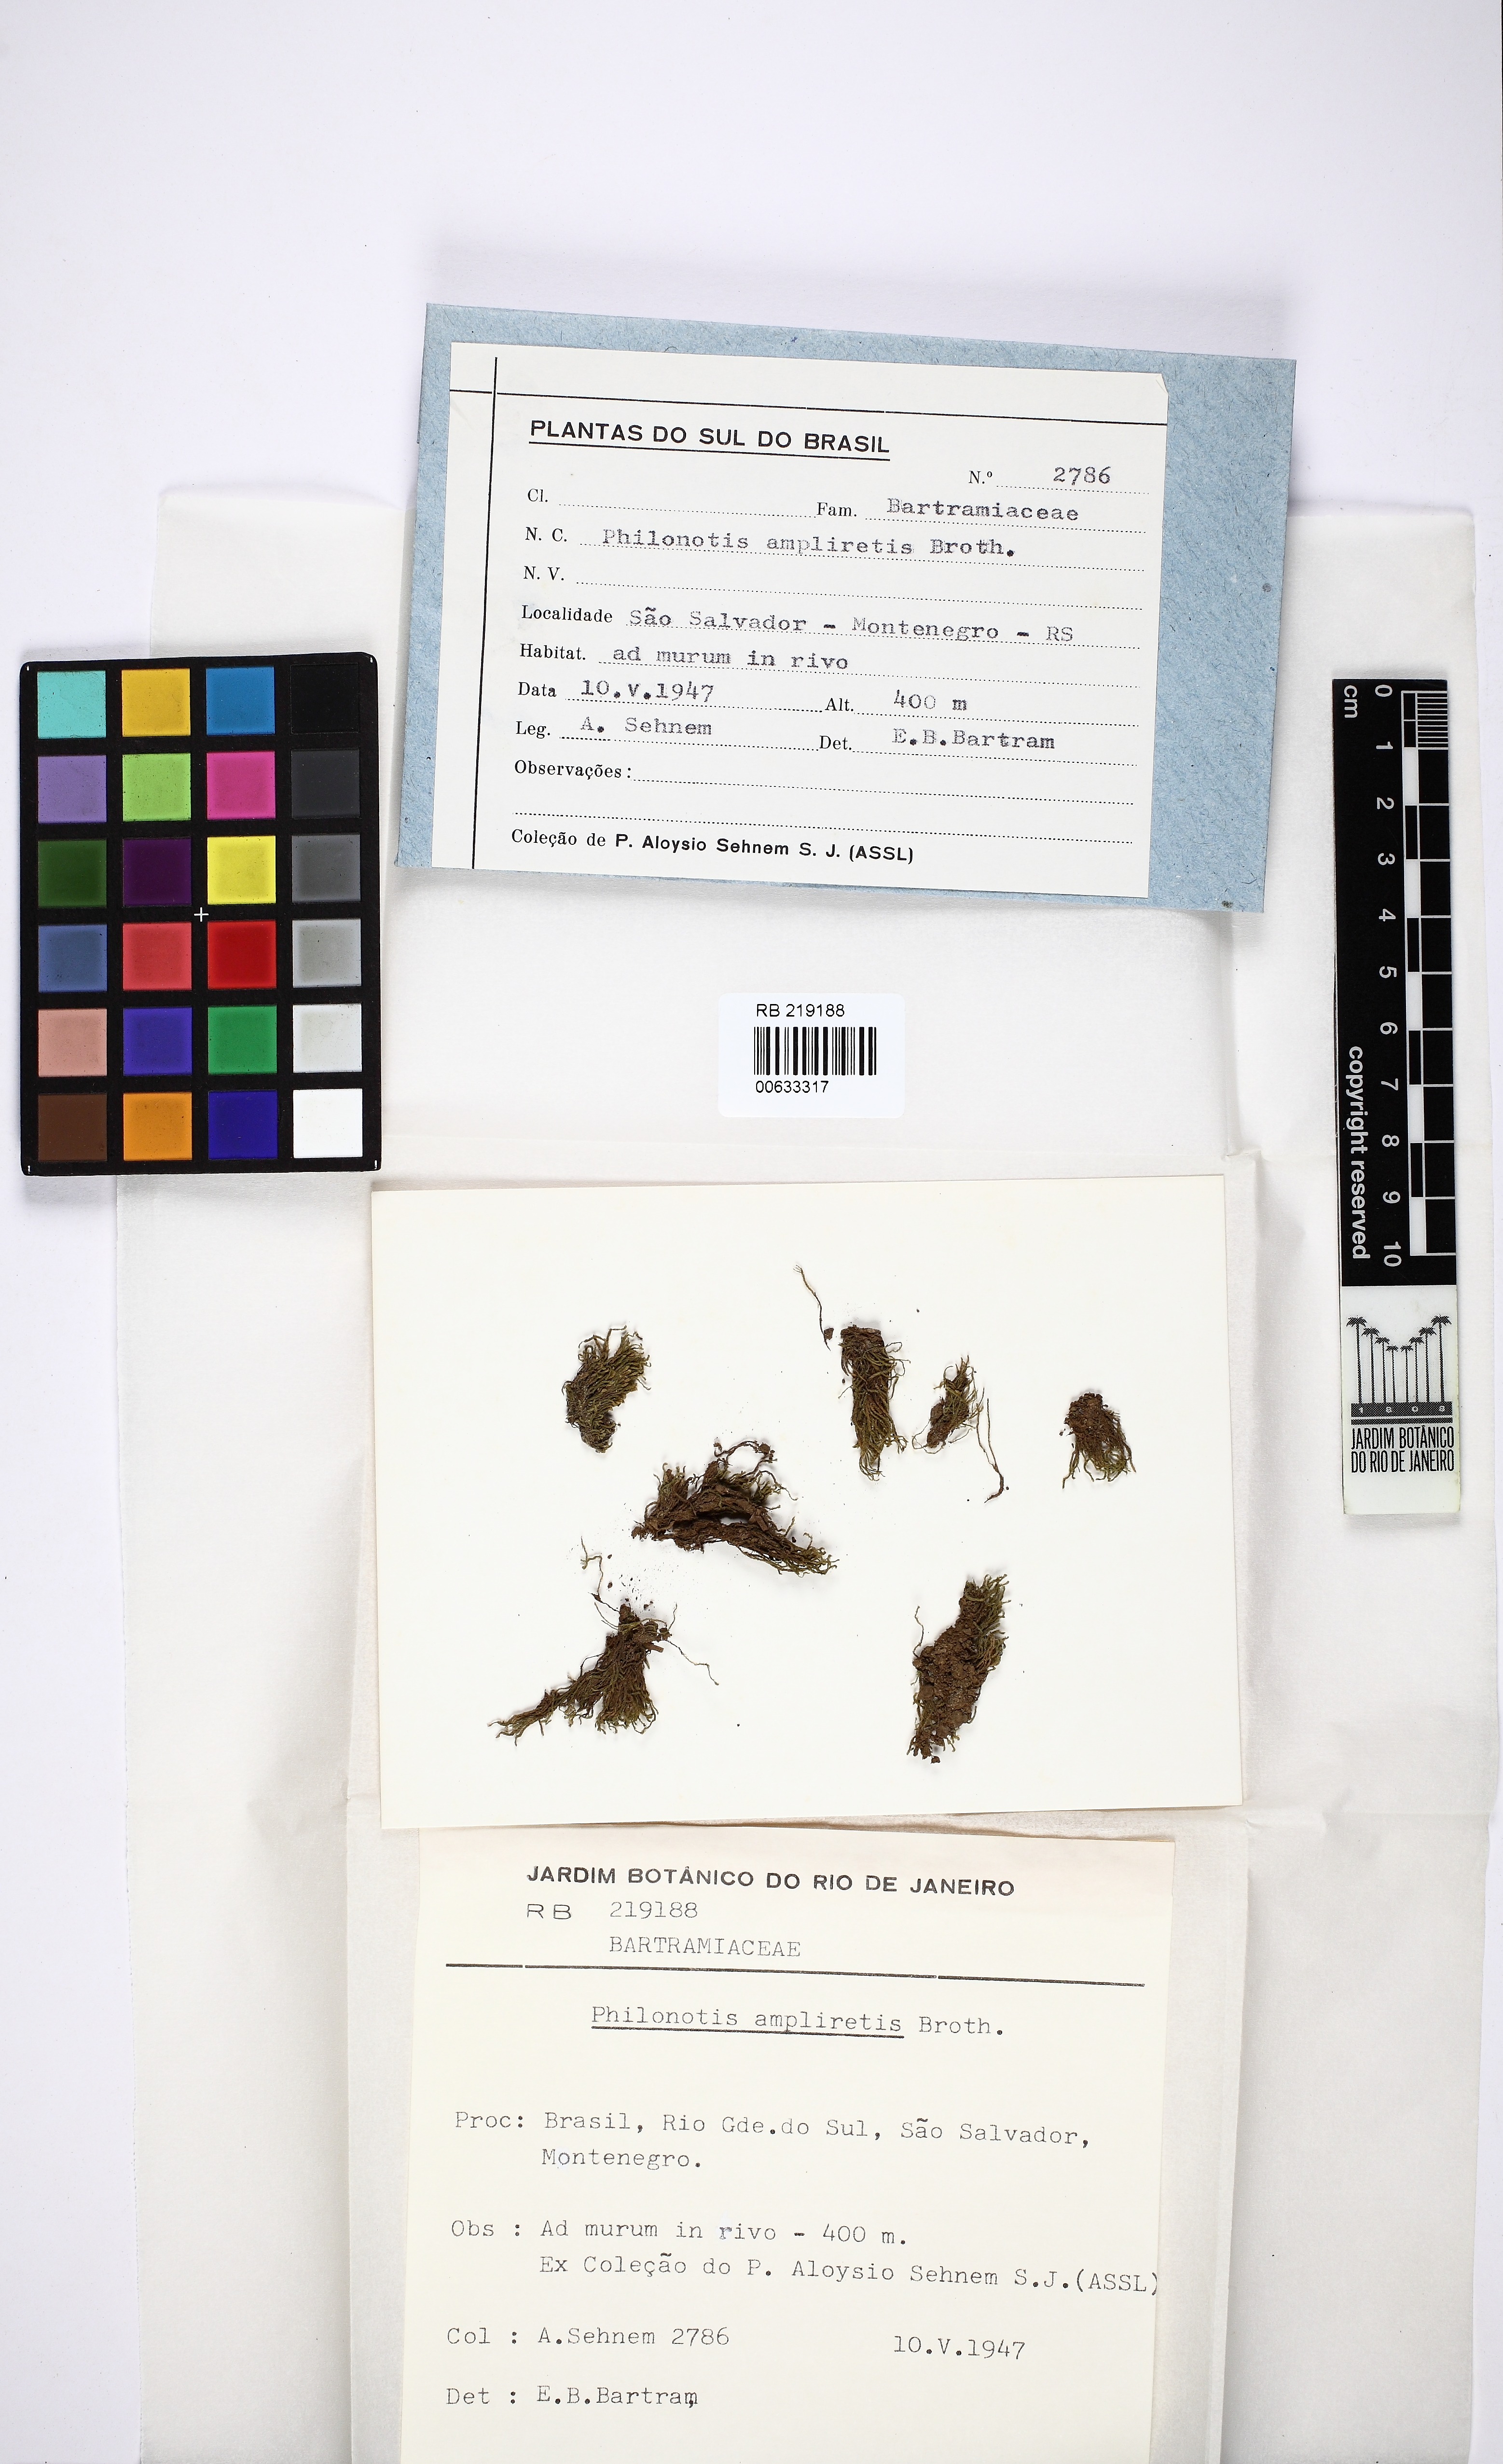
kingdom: Plantae
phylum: Bryophyta
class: Bryopsida
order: Bartramiales
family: Bartramiaceae
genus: Philonotis
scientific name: Philonotis ampliretis
